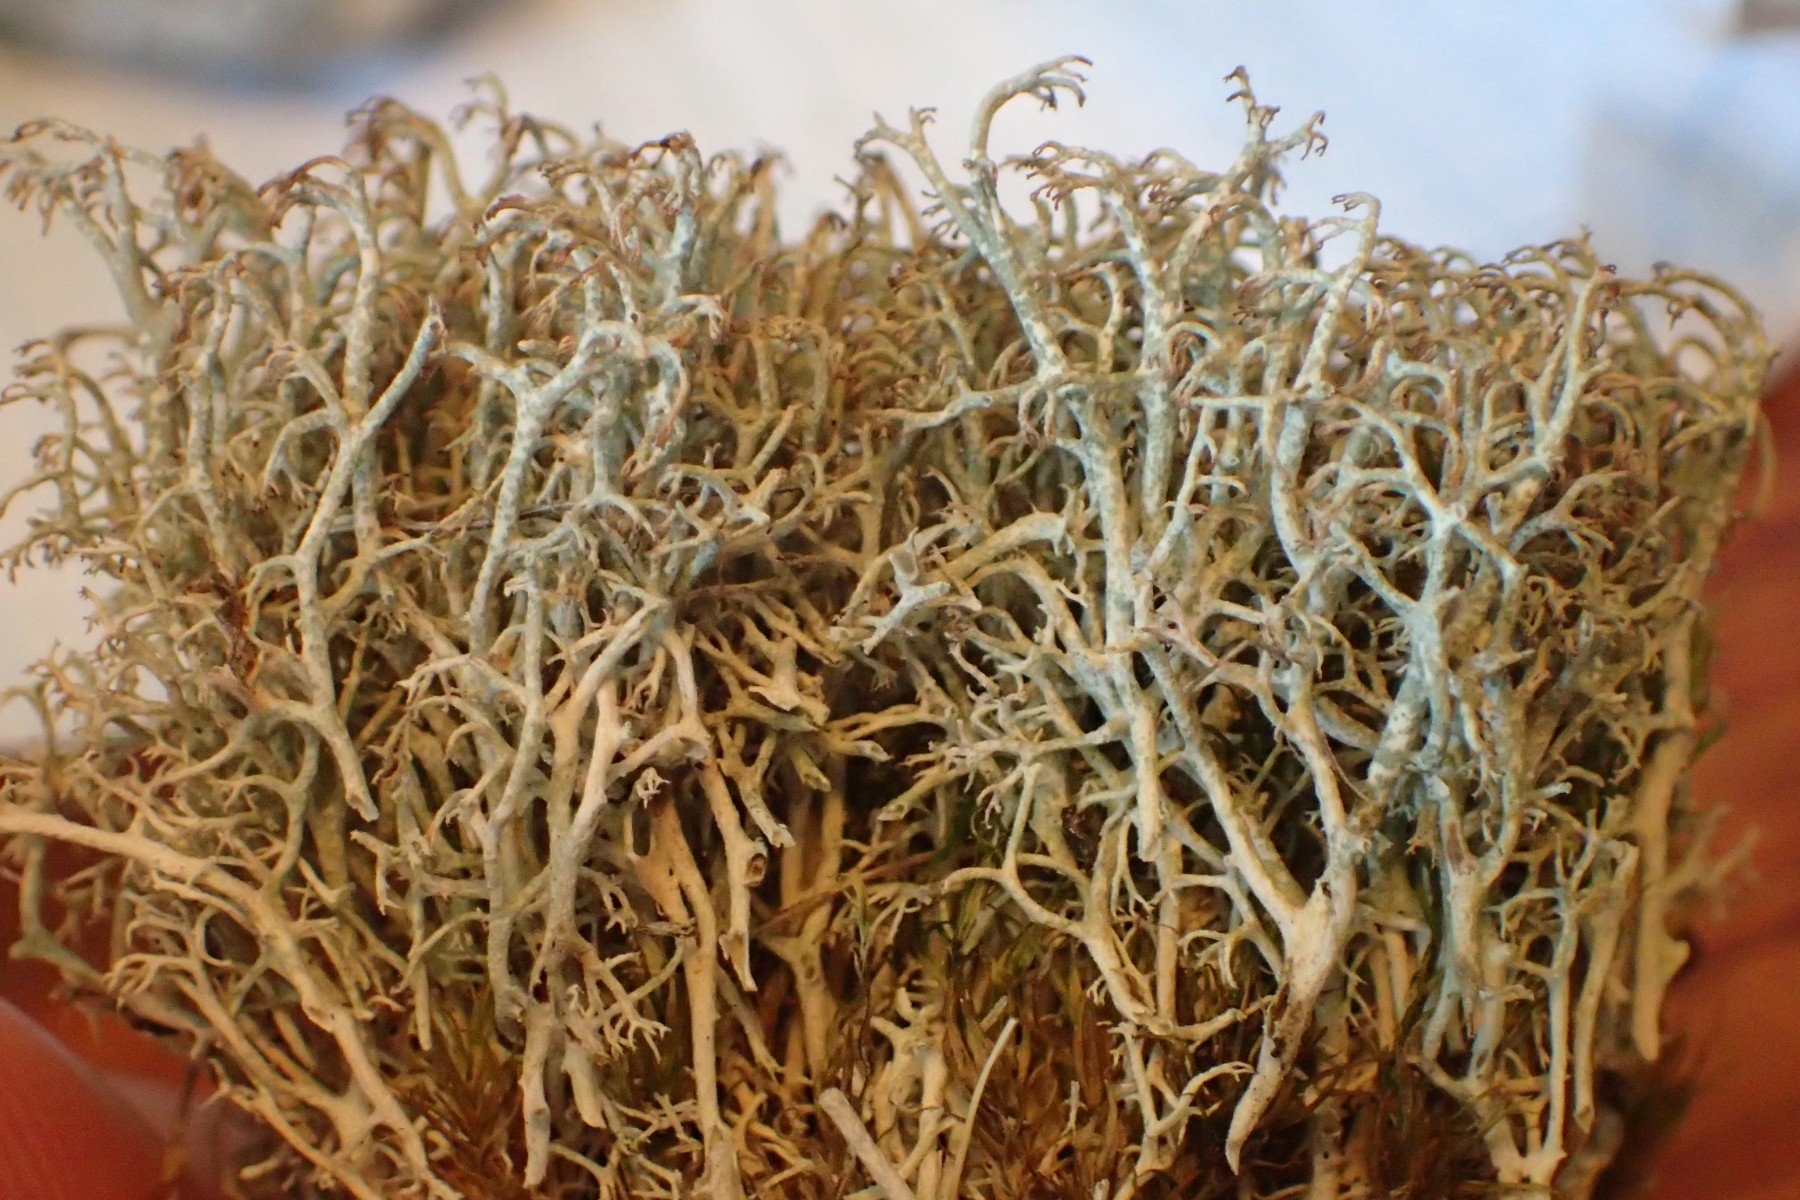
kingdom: Fungi
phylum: Ascomycota
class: Lecanoromycetes
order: Lecanorales
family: Cladoniaceae
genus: Cladonia
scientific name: Cladonia arbuscula
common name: gulhvid rensdyrlav
